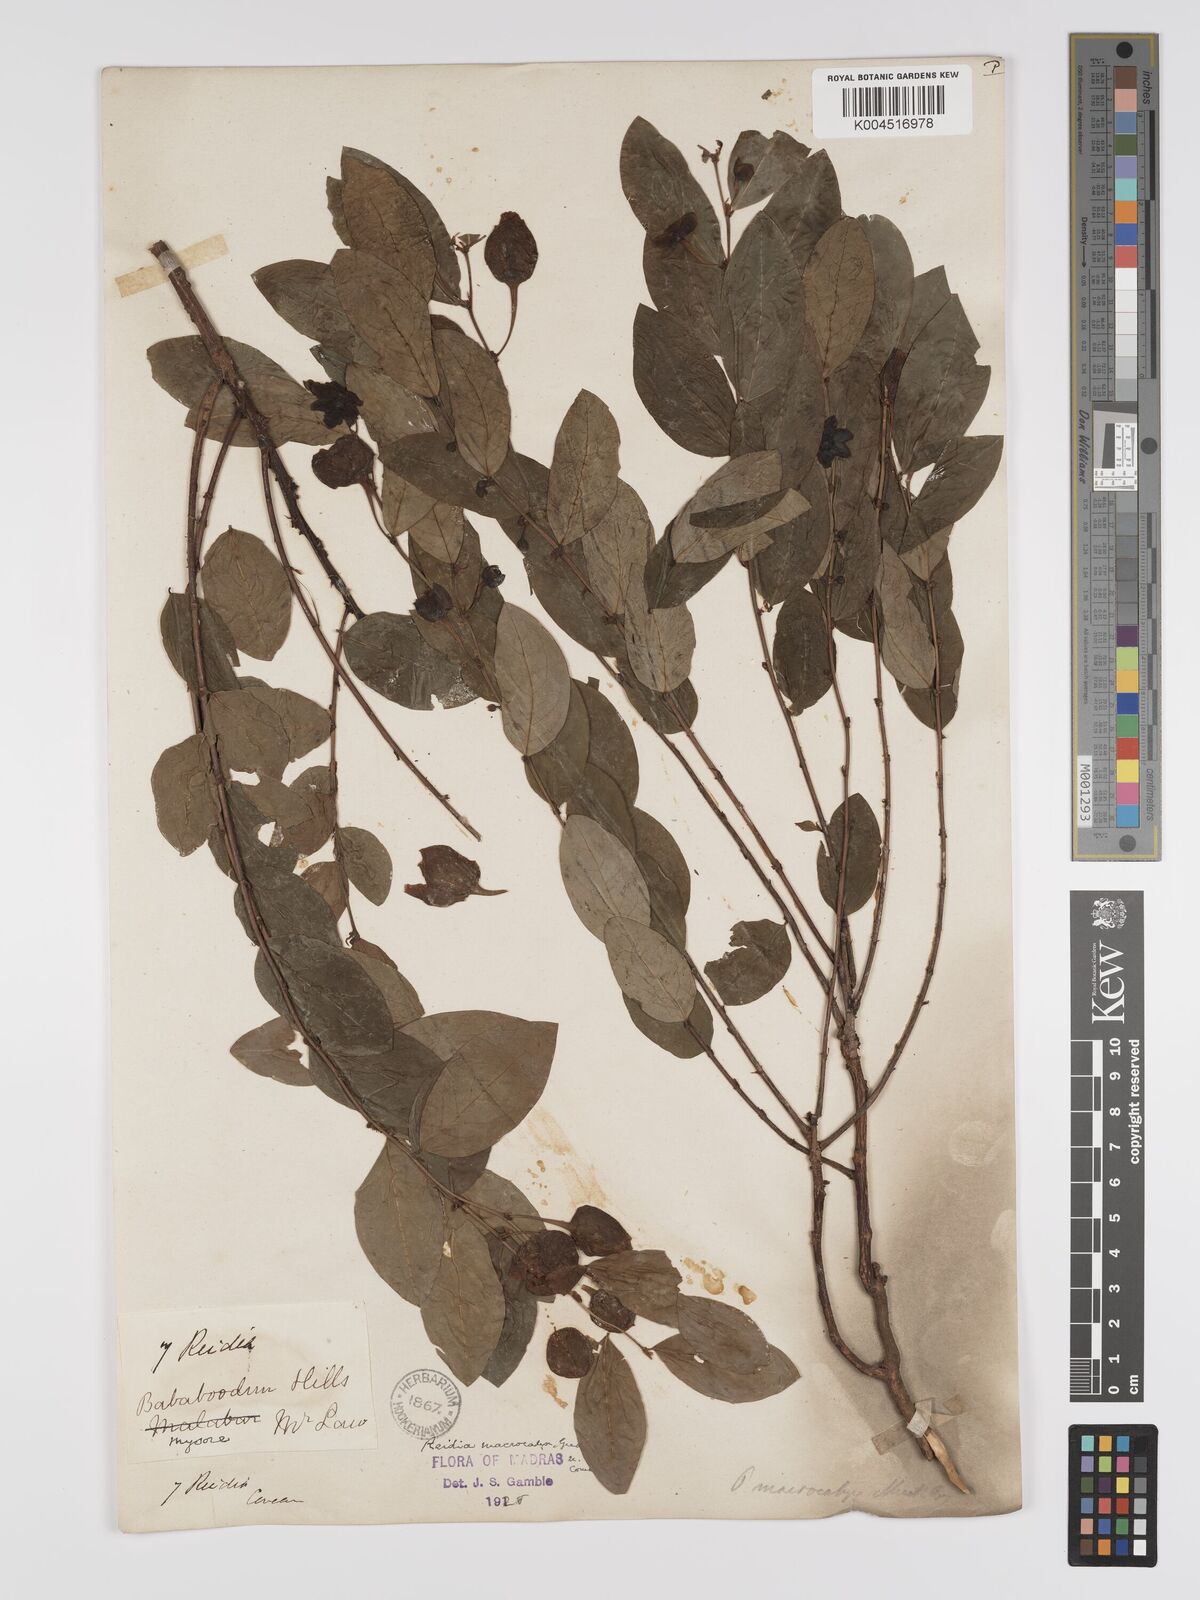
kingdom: Plantae
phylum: Tracheophyta
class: Magnoliopsida
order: Malpighiales
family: Phyllanthaceae
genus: Phyllanthus
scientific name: Phyllanthus macrocalyx
